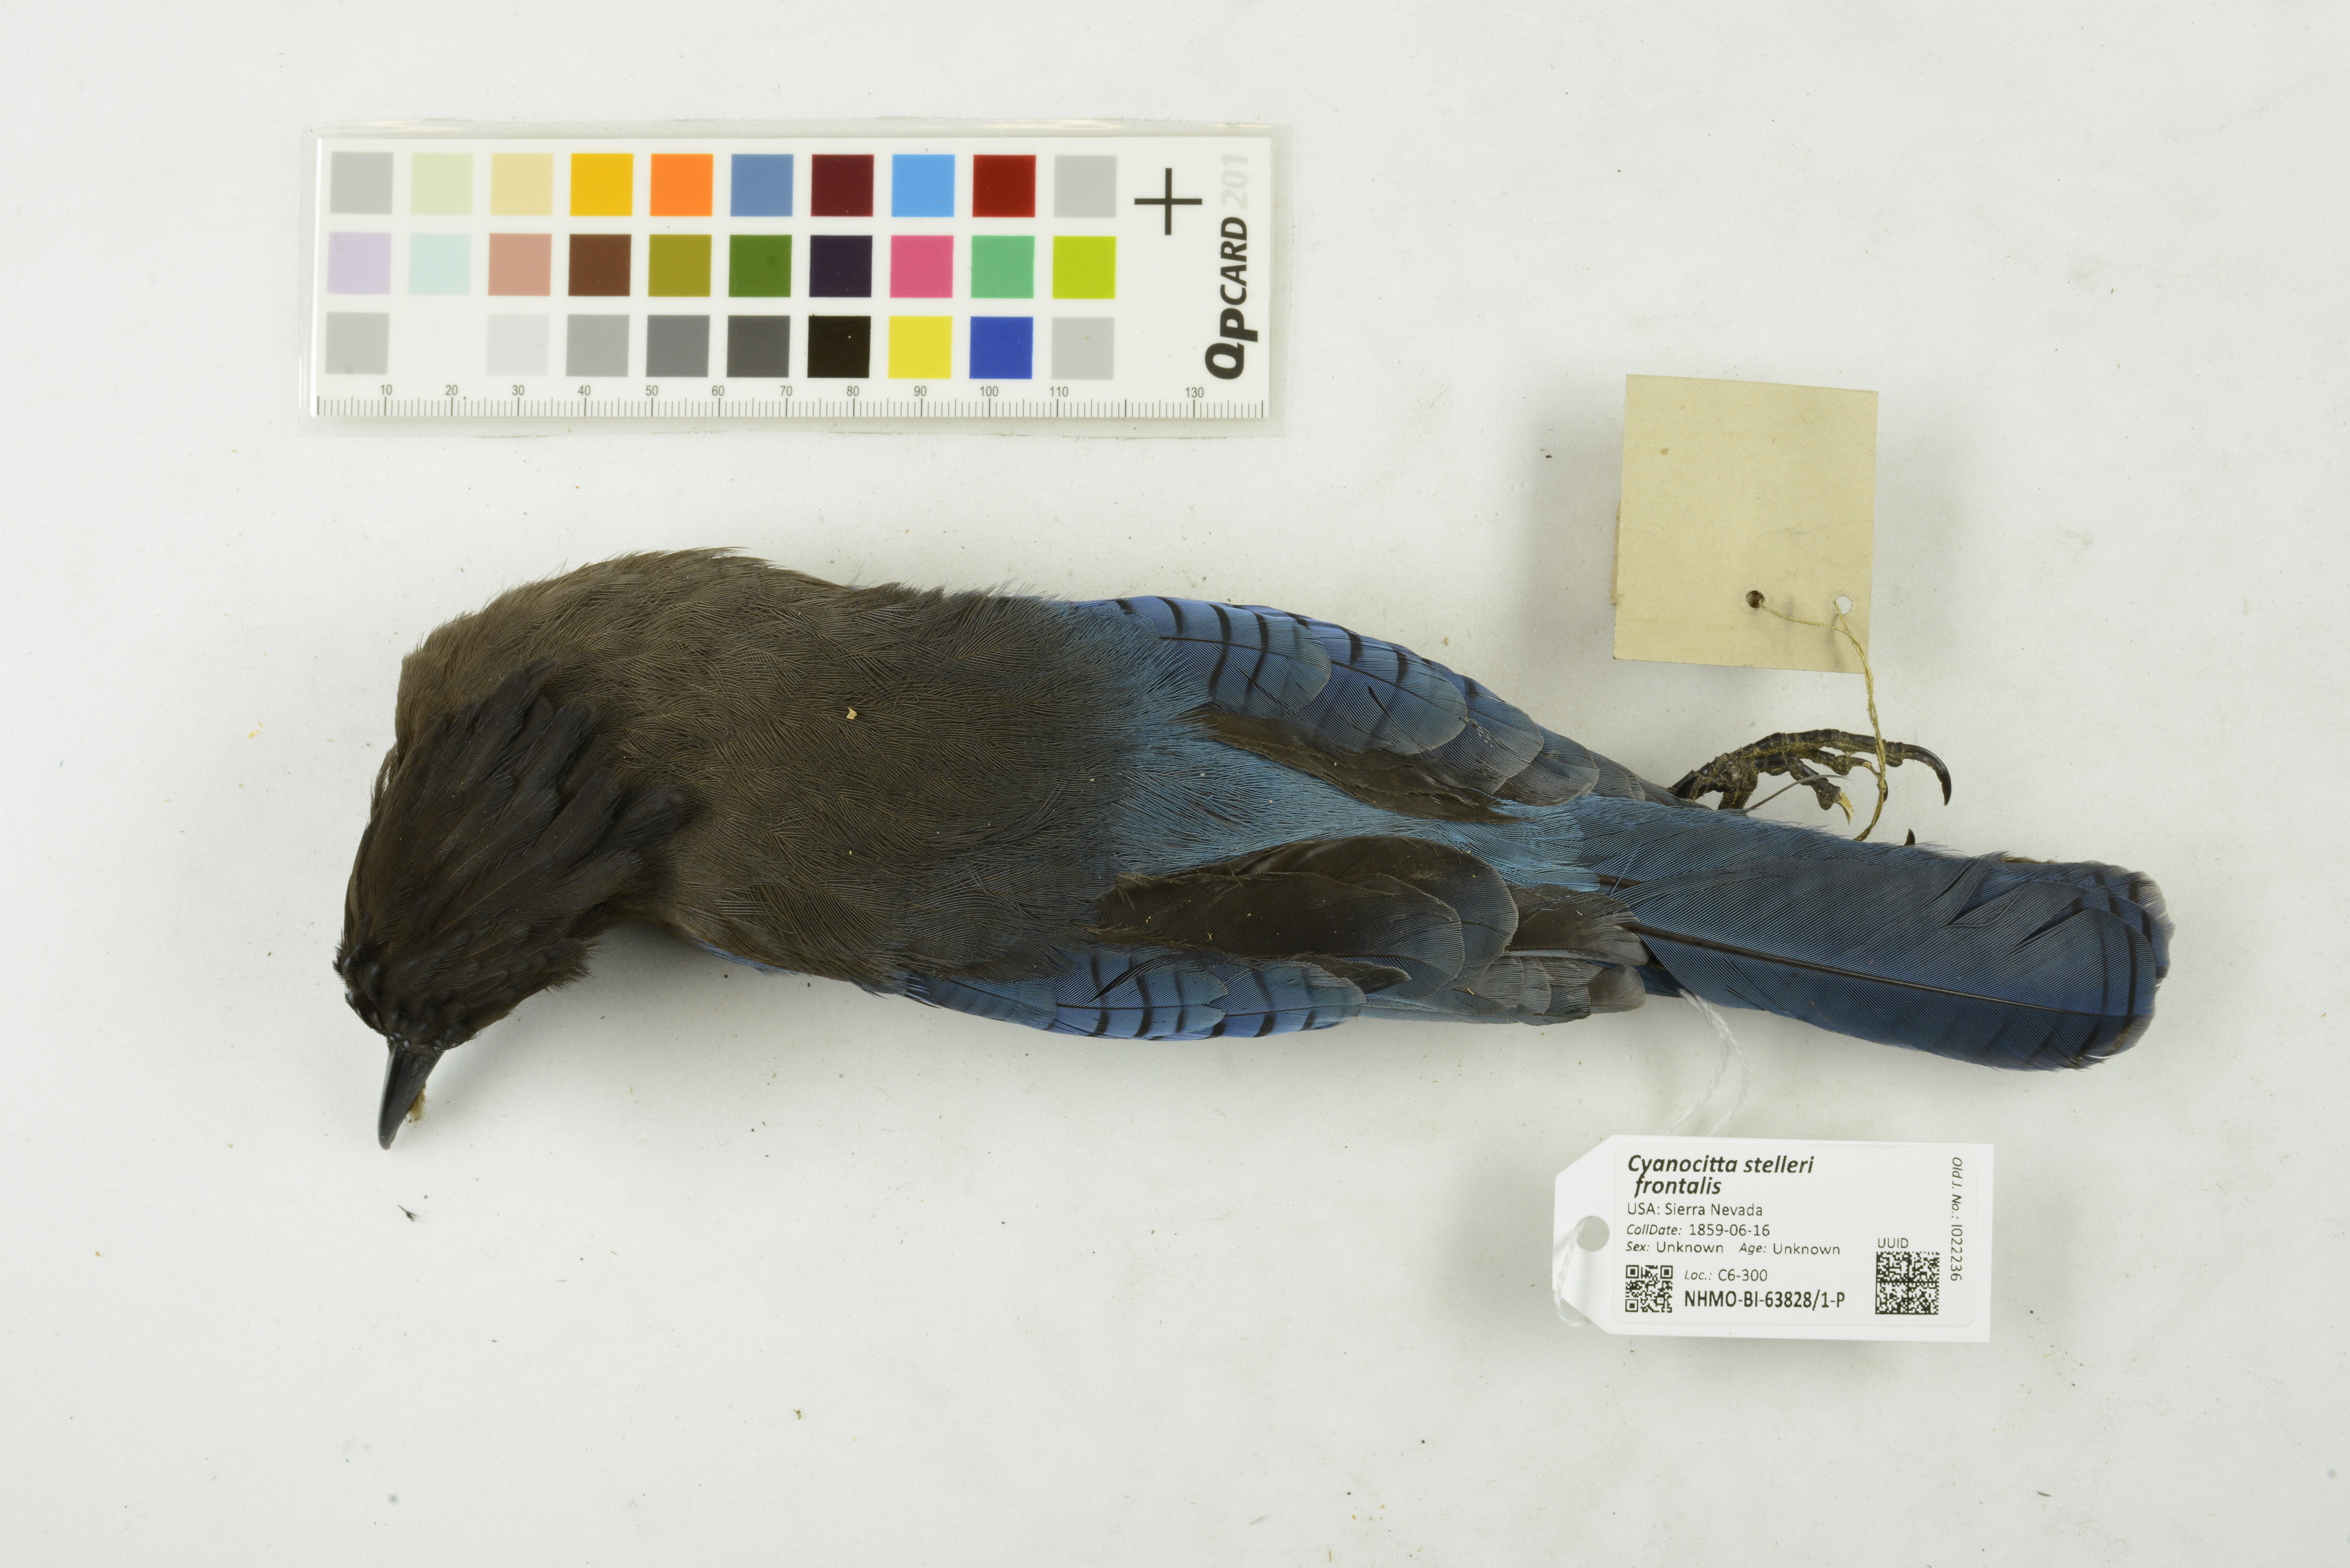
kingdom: Animalia
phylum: Chordata
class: Aves
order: Passeriformes
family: Corvidae
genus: Cyanocitta
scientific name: Cyanocitta stelleri
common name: Steller's jay
